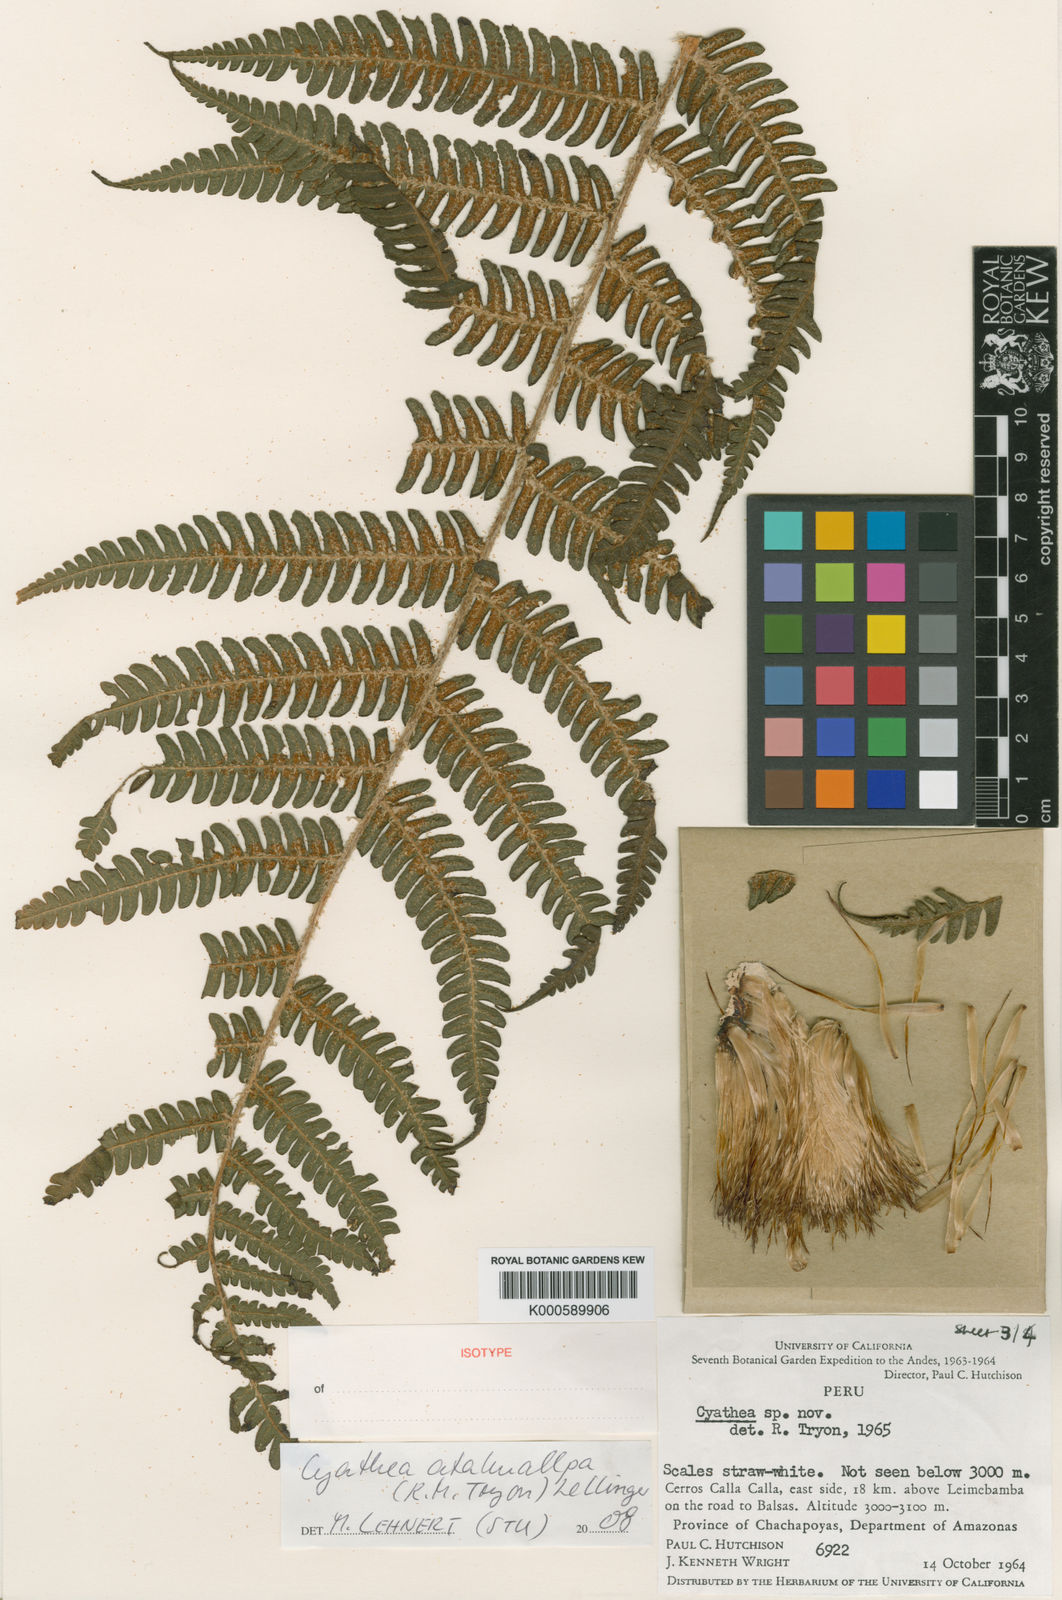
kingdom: Plantae
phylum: Tracheophyta
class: Polypodiopsida
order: Cyatheales
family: Cyatheaceae
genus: Cyathea
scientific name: Cyathea atahuallpa
